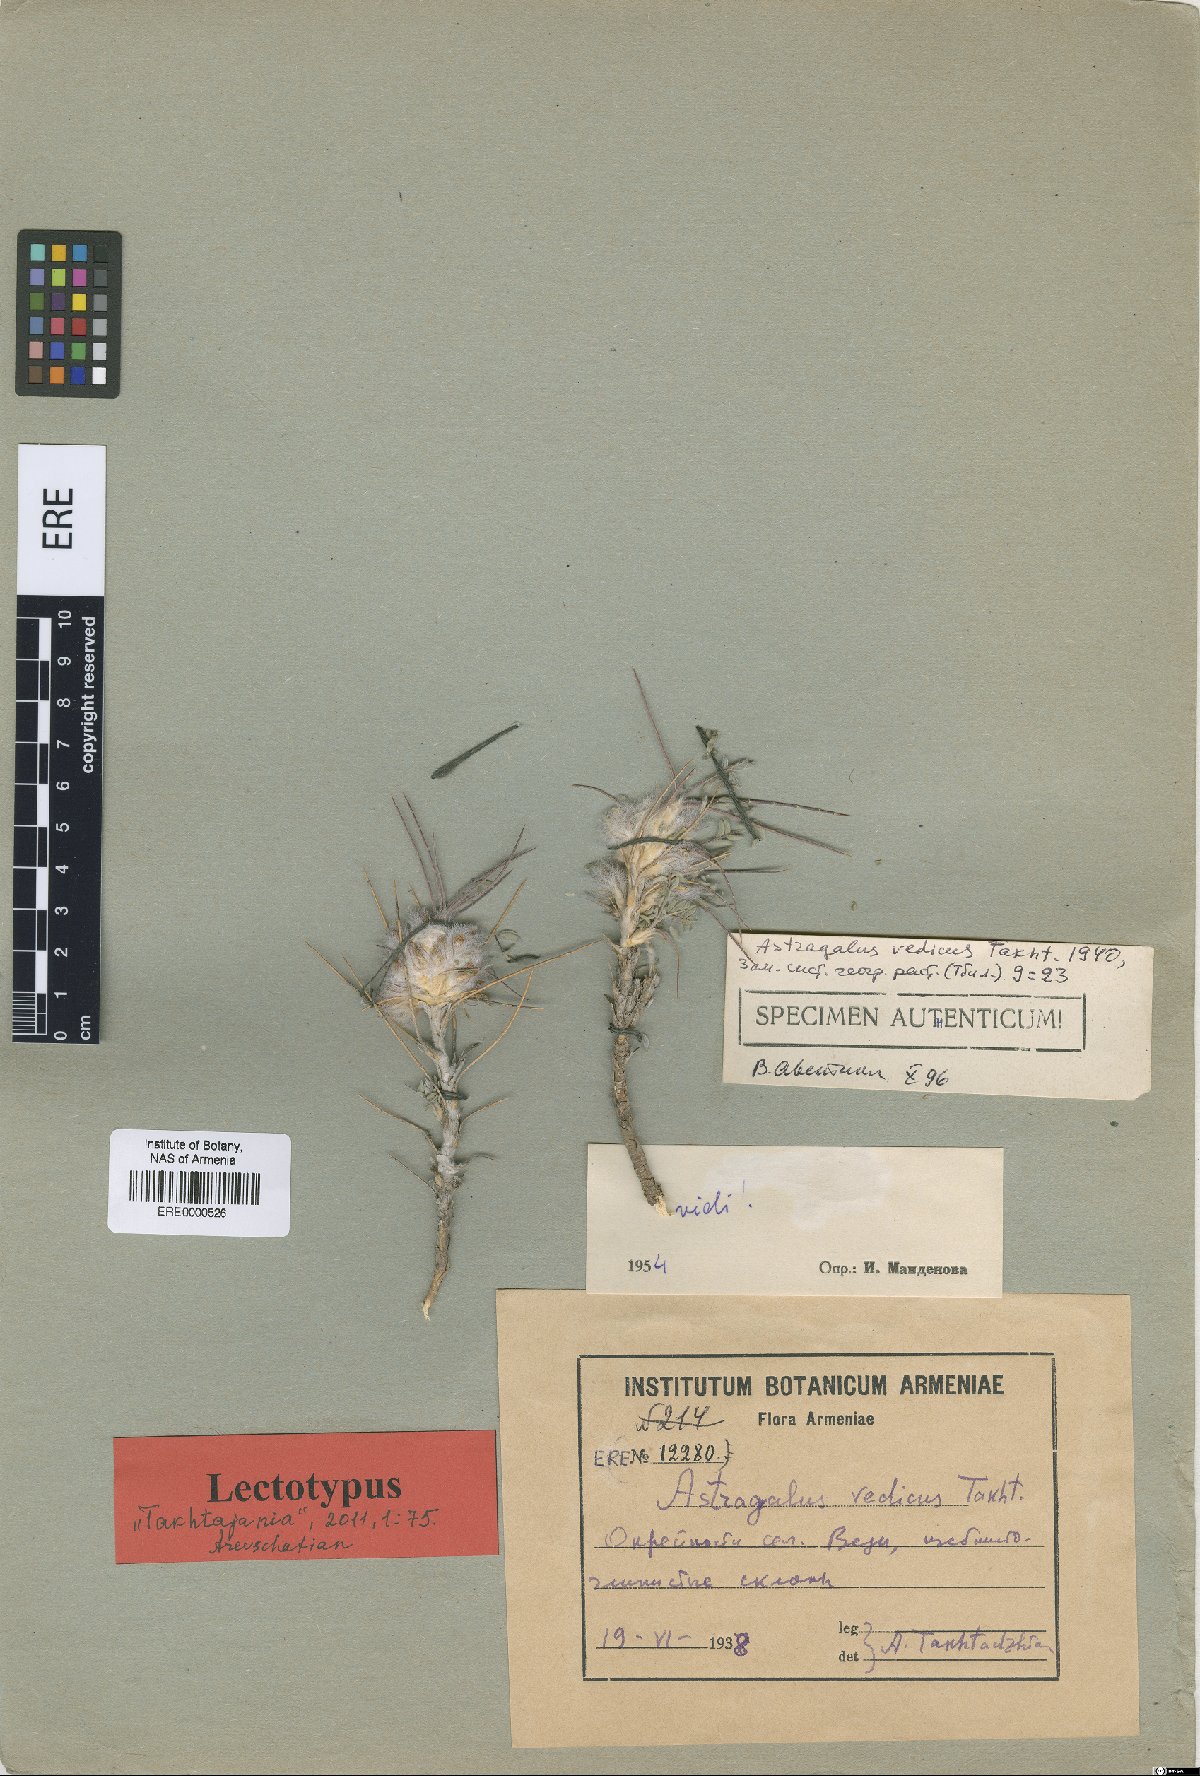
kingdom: Plantae
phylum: Tracheophyta
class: Magnoliopsida
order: Fabales
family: Fabaceae
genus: Astragalus
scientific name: Astragalus polyanthus
